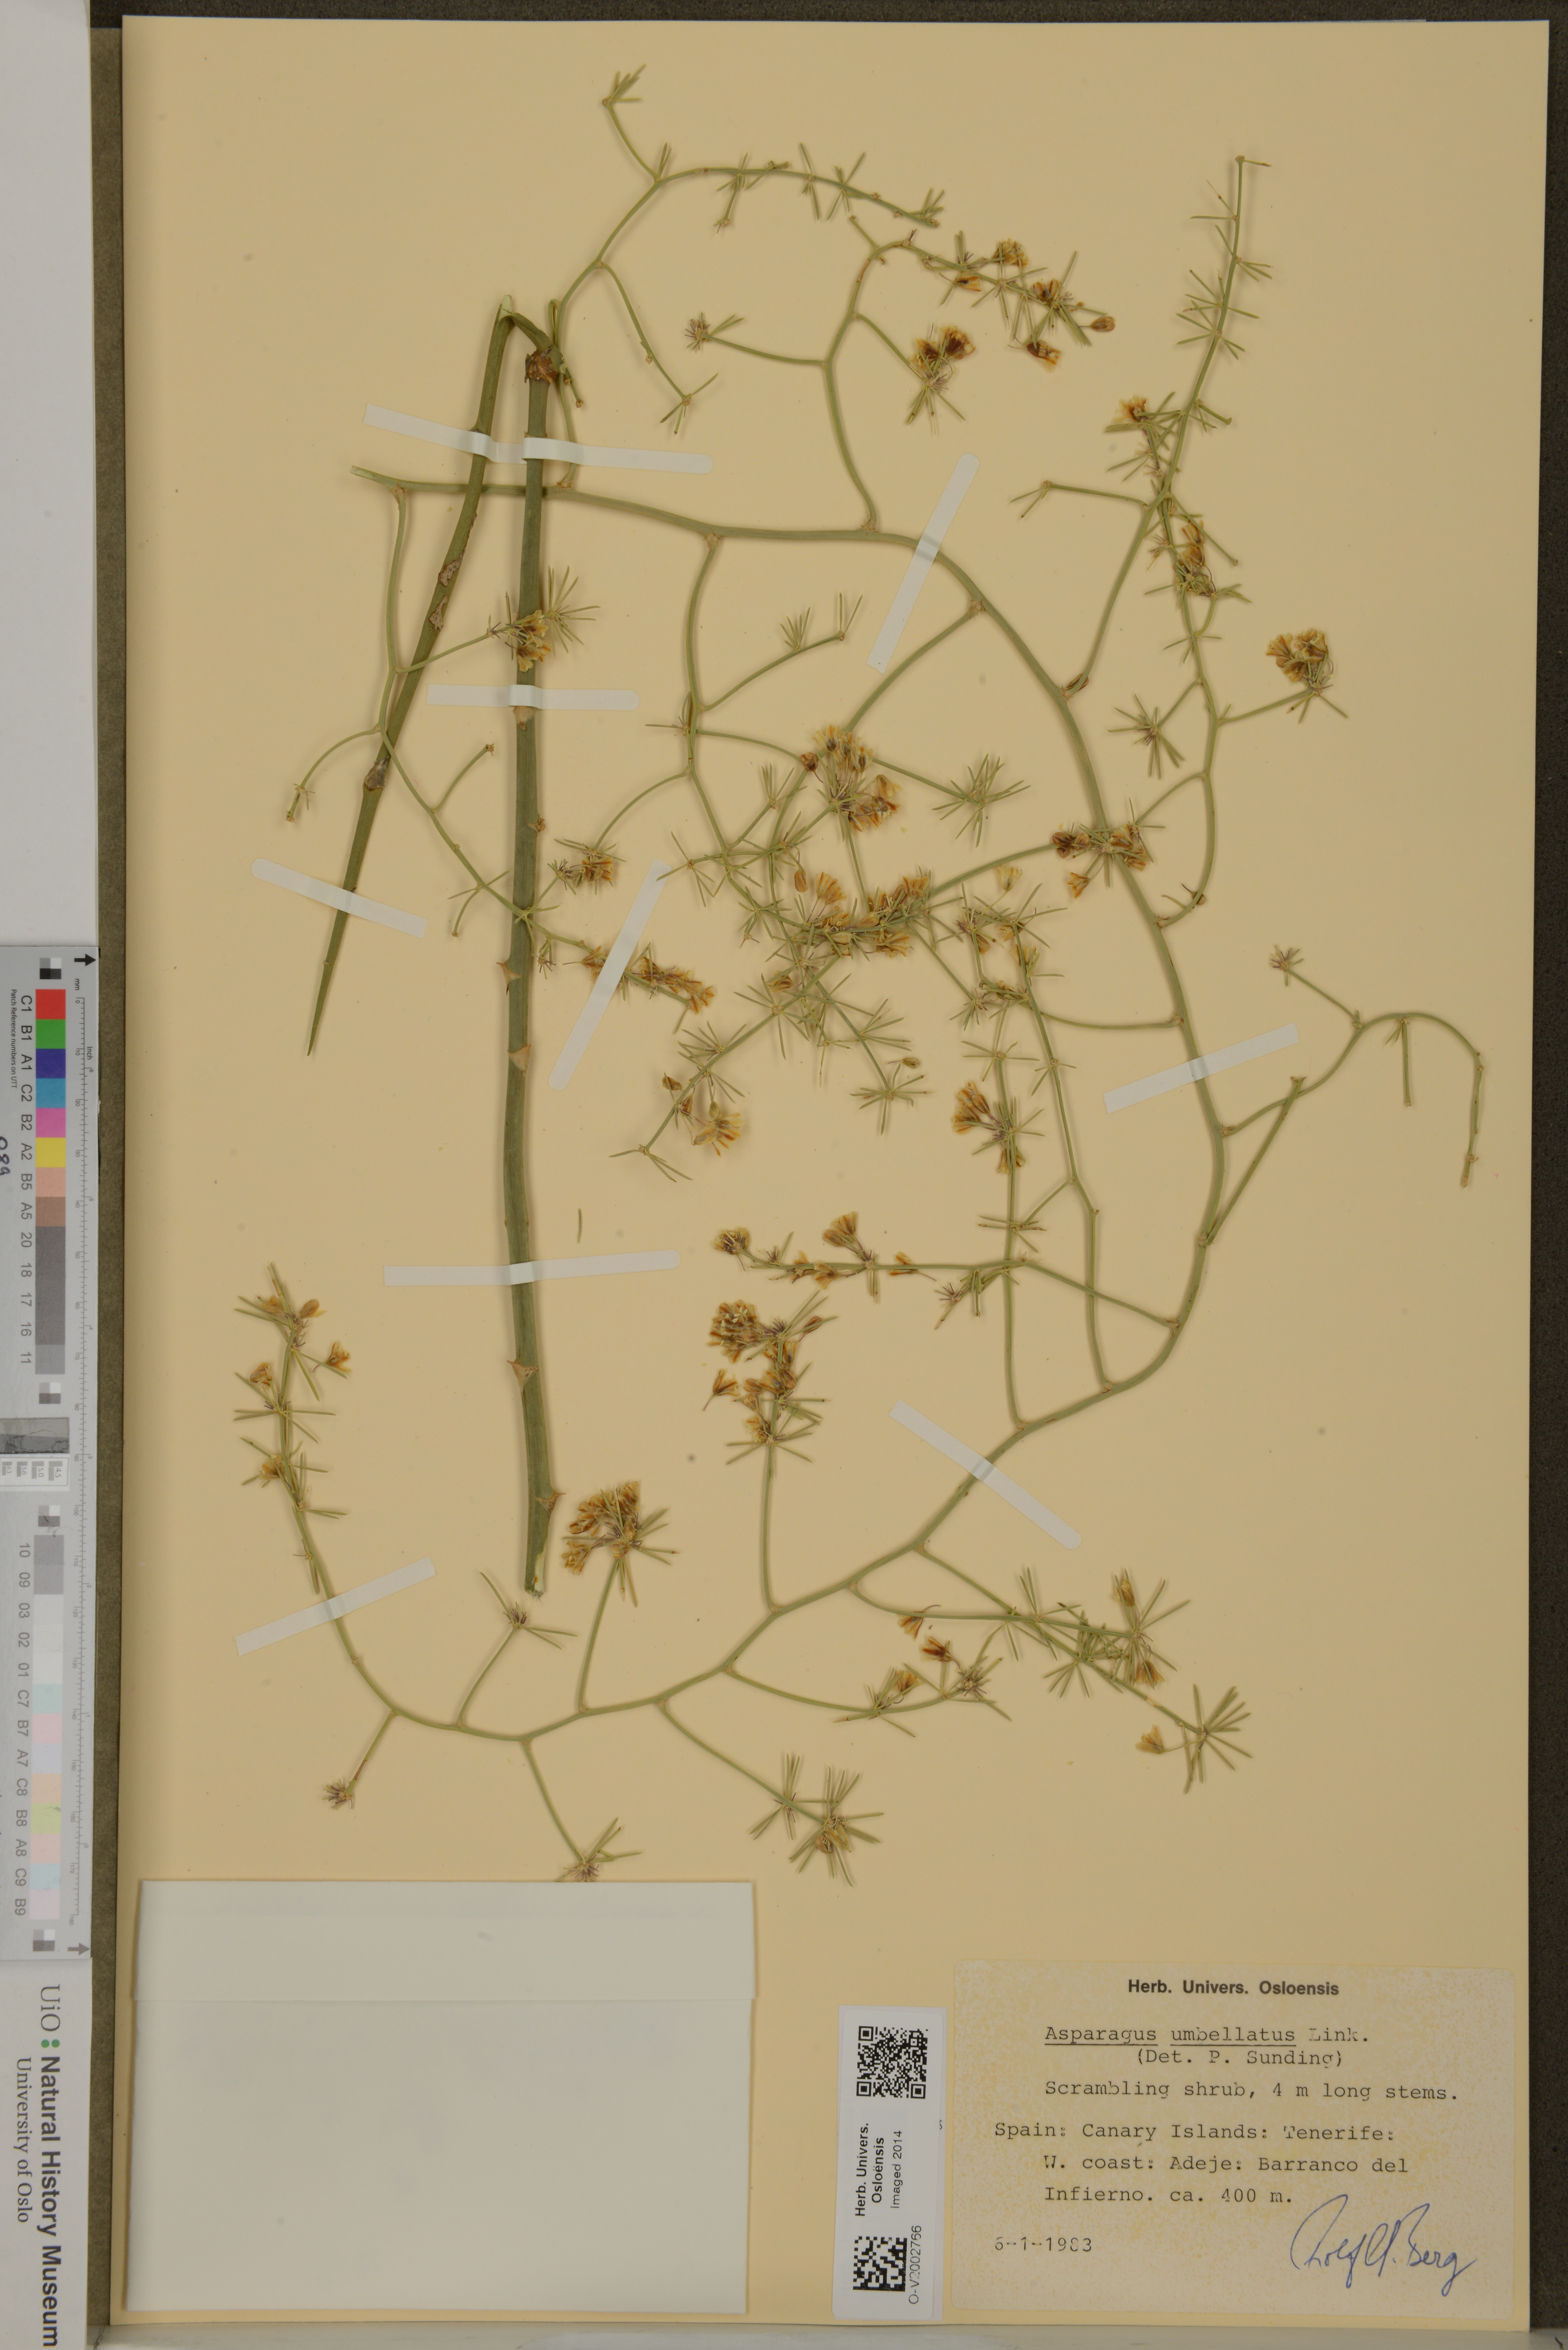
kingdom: Plantae
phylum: Tracheophyta
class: Liliopsida
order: Asparagales
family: Asparagaceae
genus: Asparagus
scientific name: Asparagus umbellatus
